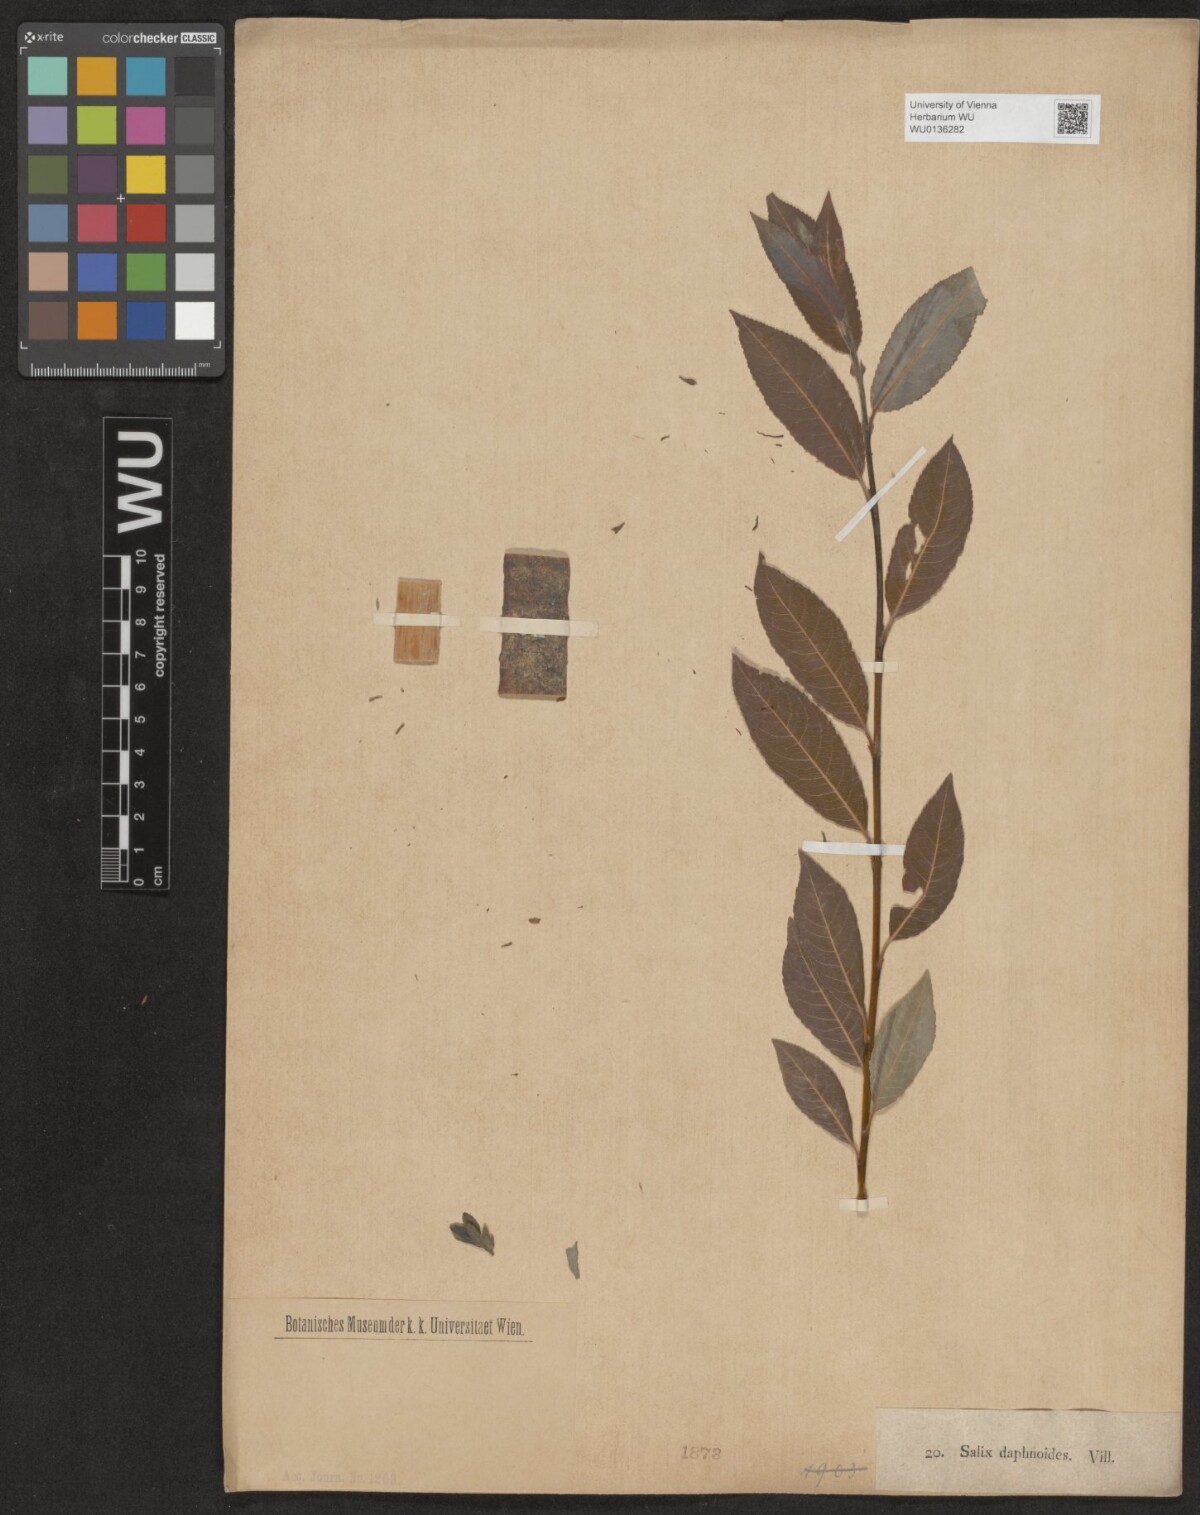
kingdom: Plantae
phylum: Tracheophyta
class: Magnoliopsida
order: Malpighiales
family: Salicaceae
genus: Salix
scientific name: Salix daphnoides
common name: European violet-willow
